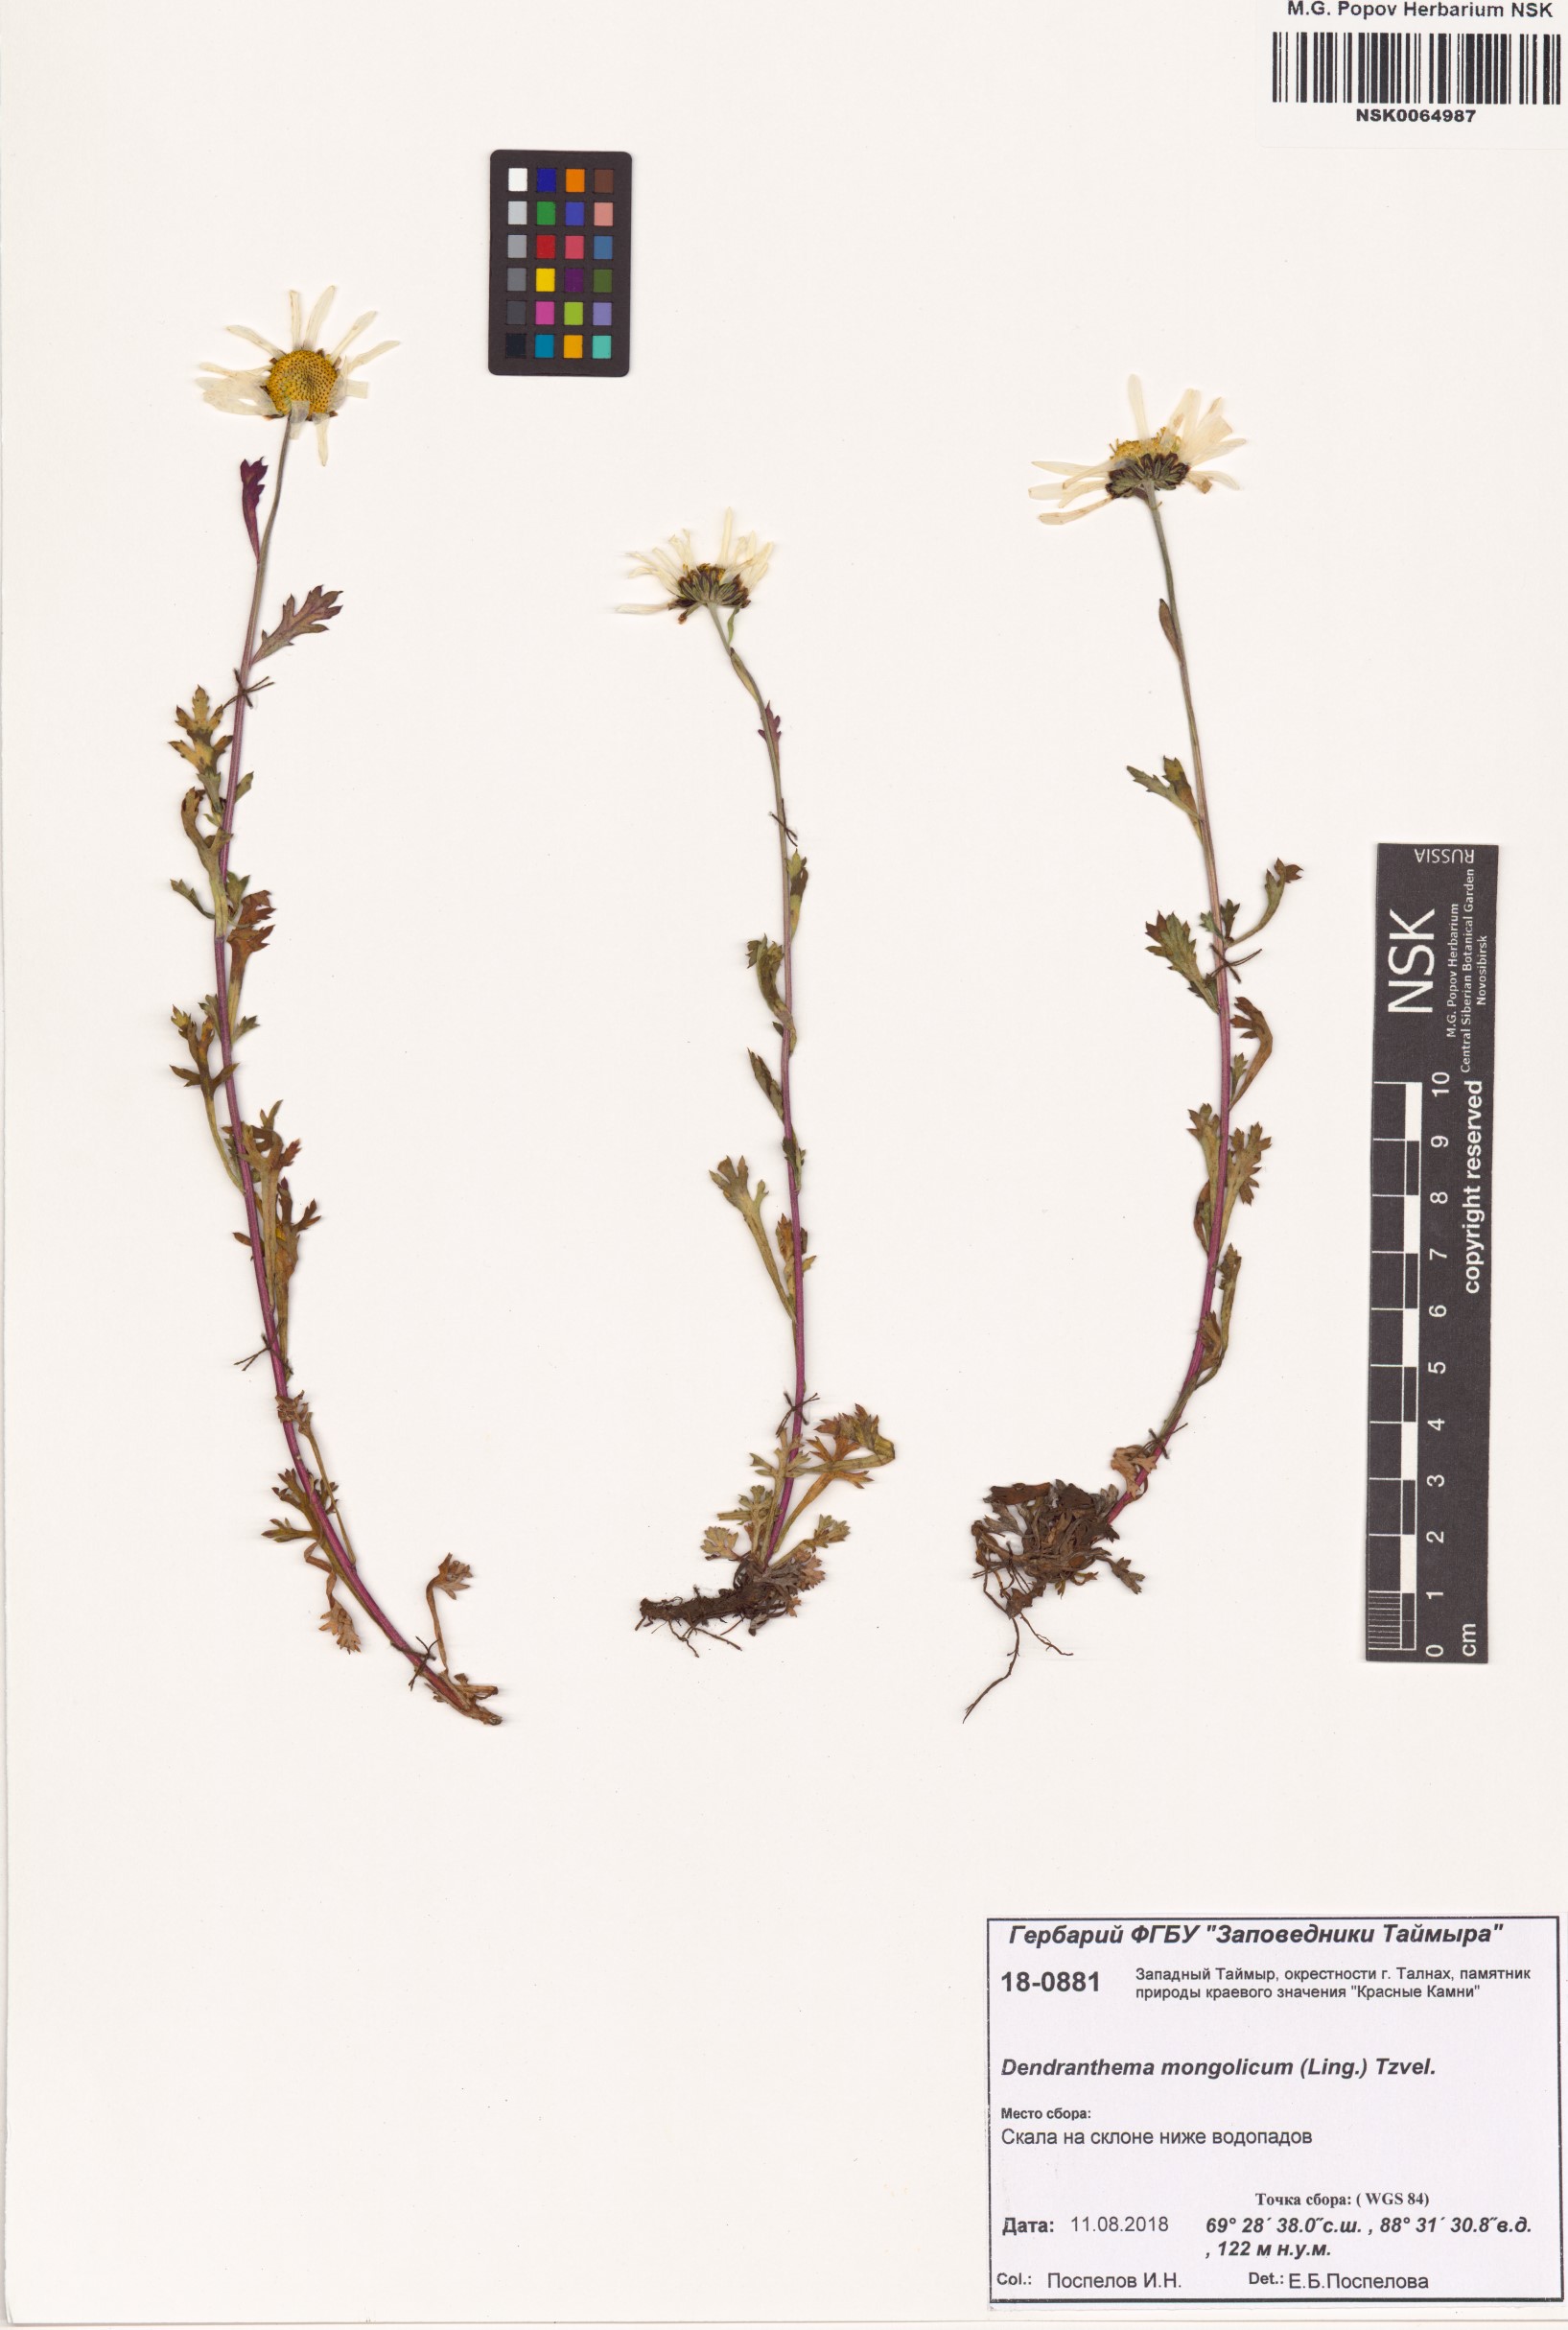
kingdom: Plantae
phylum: Tracheophyta
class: Magnoliopsida
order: Asterales
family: Asteraceae
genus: Chrysanthemum
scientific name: Chrysanthemum zawadzkii
